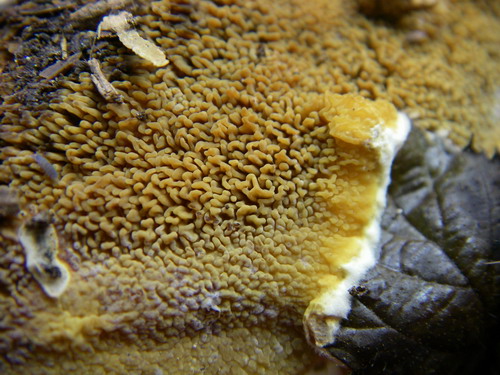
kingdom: Fungi
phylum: Basidiomycota
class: Agaricomycetes
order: Boletales
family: Paxillaceae
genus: Hydnomerulius
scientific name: Hydnomerulius pinastri
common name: pigget hussvamp
